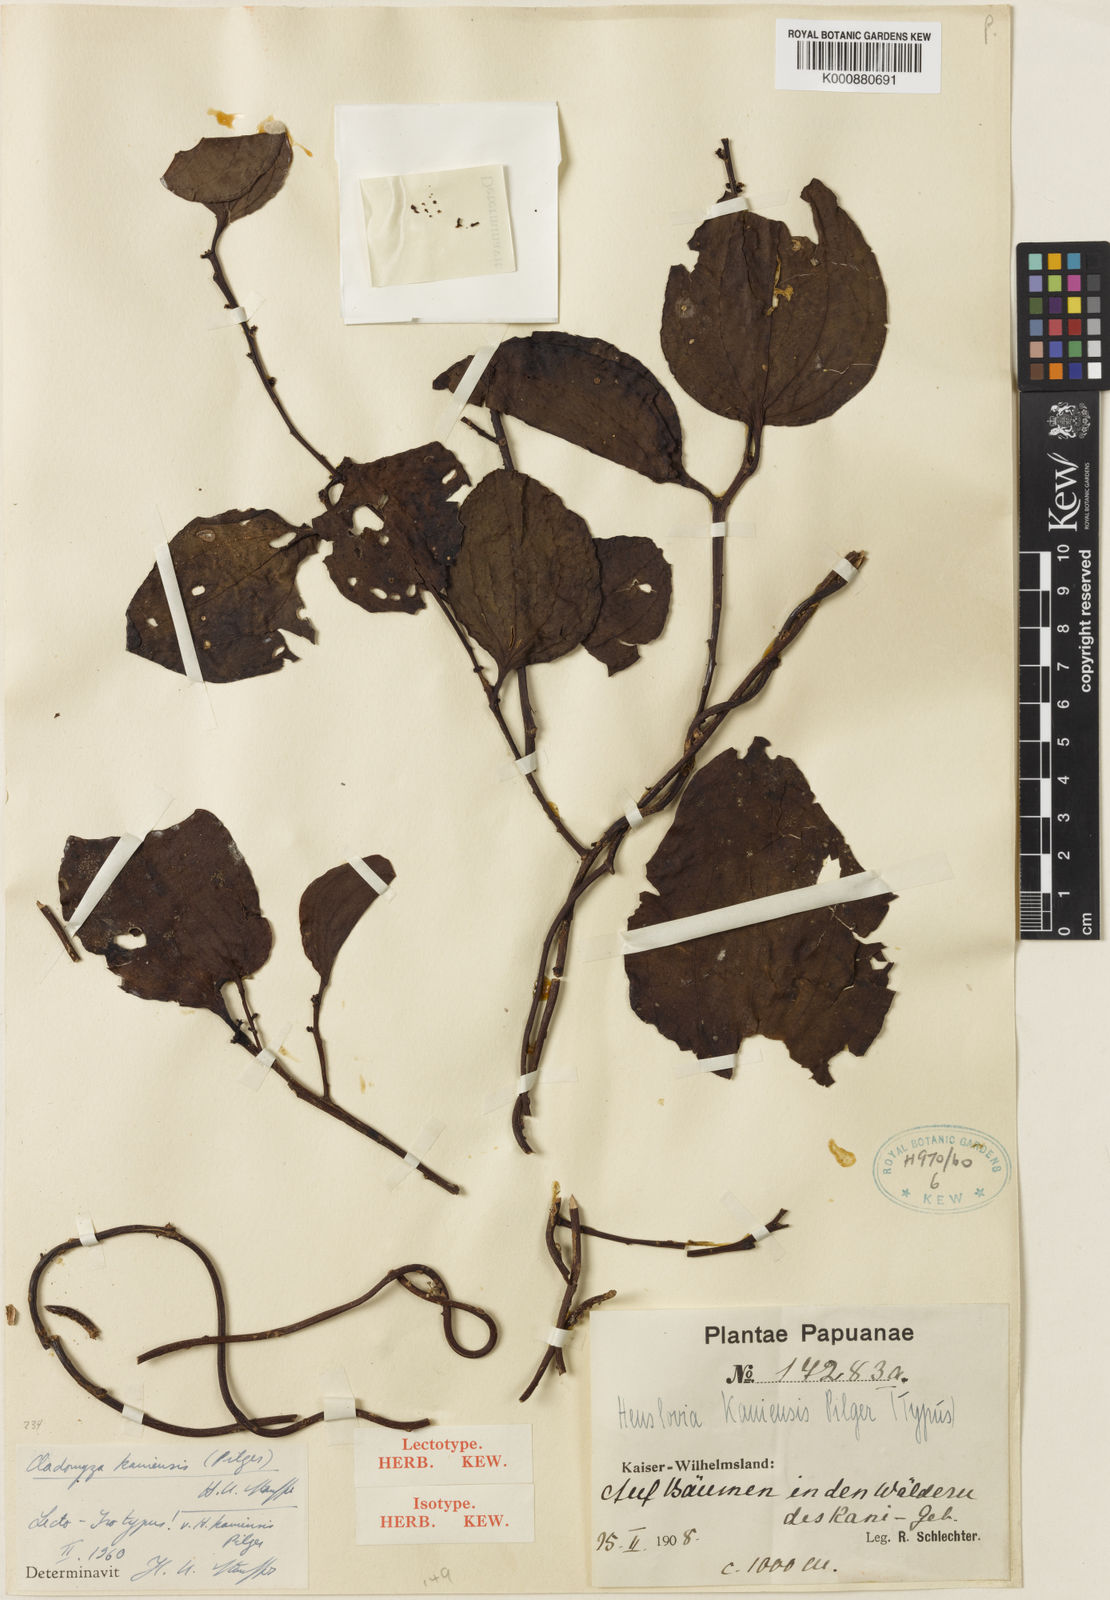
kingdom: Plantae
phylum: Tracheophyta
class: Magnoliopsida
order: Santalales
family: Amphorogynaceae
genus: Cladomyza
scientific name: Cladomyza kaniensis
